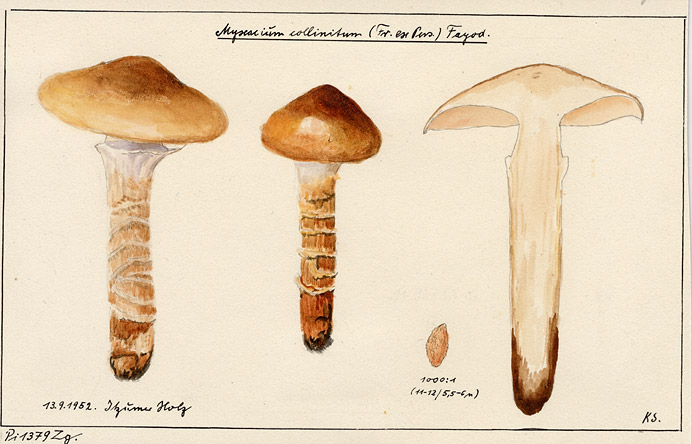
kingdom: Fungi
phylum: Basidiomycota
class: Agaricomycetes
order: Agaricales
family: Cortinariaceae
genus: Cortinarius
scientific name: Cortinarius trivialis
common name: Girdled webcap
